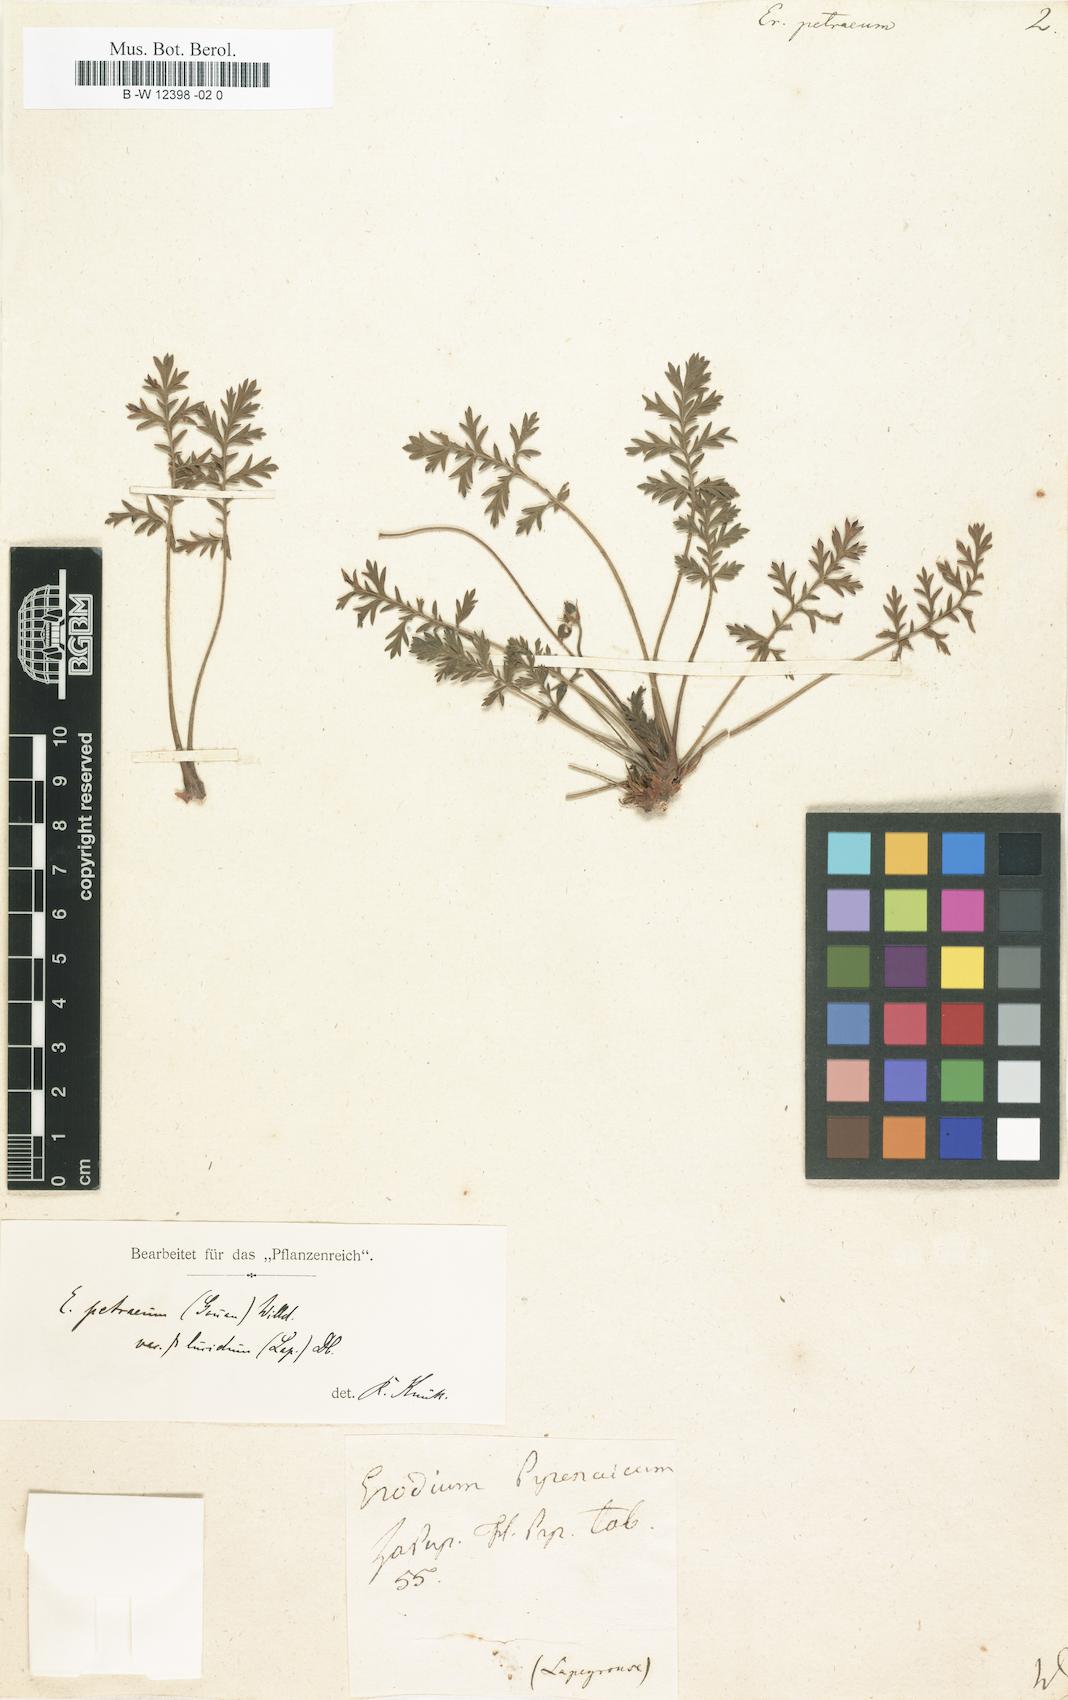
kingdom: Plantae
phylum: Tracheophyta
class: Magnoliopsida
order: Geraniales
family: Geraniaceae
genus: Erodium
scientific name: Erodium
